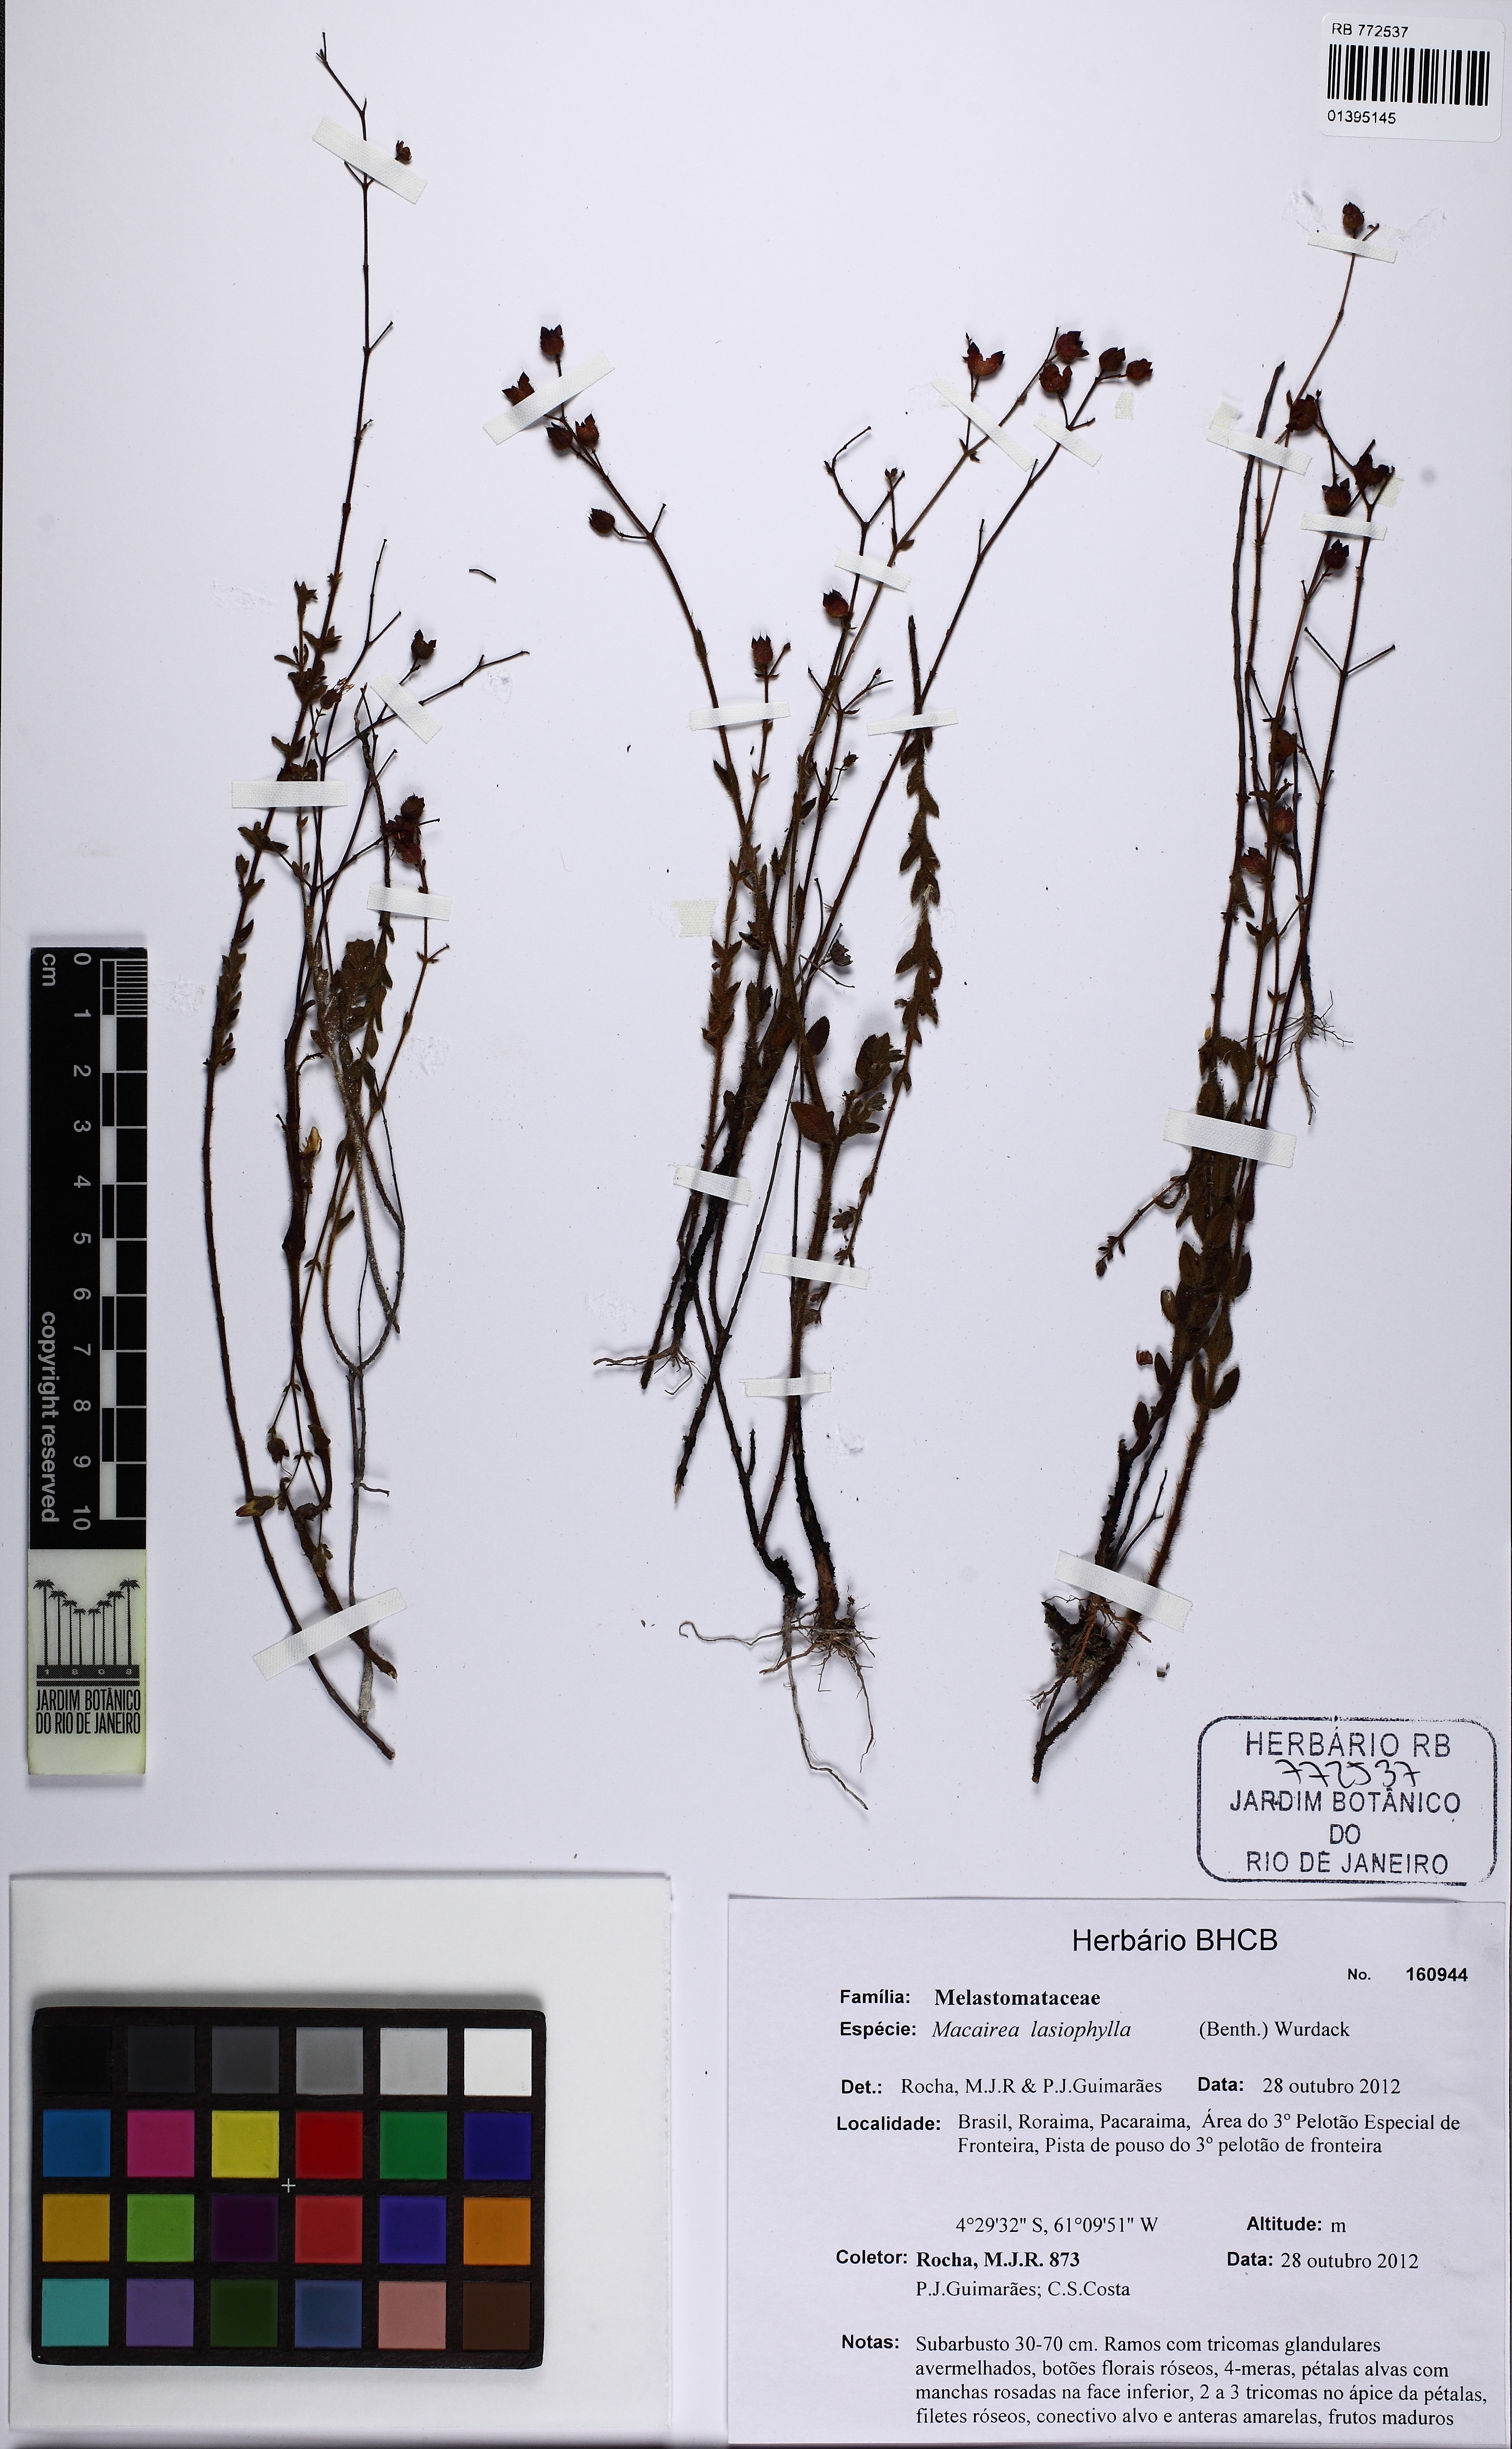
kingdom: Plantae
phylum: Tracheophyta
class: Magnoliopsida
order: Myrtales
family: Melastomataceae
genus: Macairea
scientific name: Macairea lasiophylla
